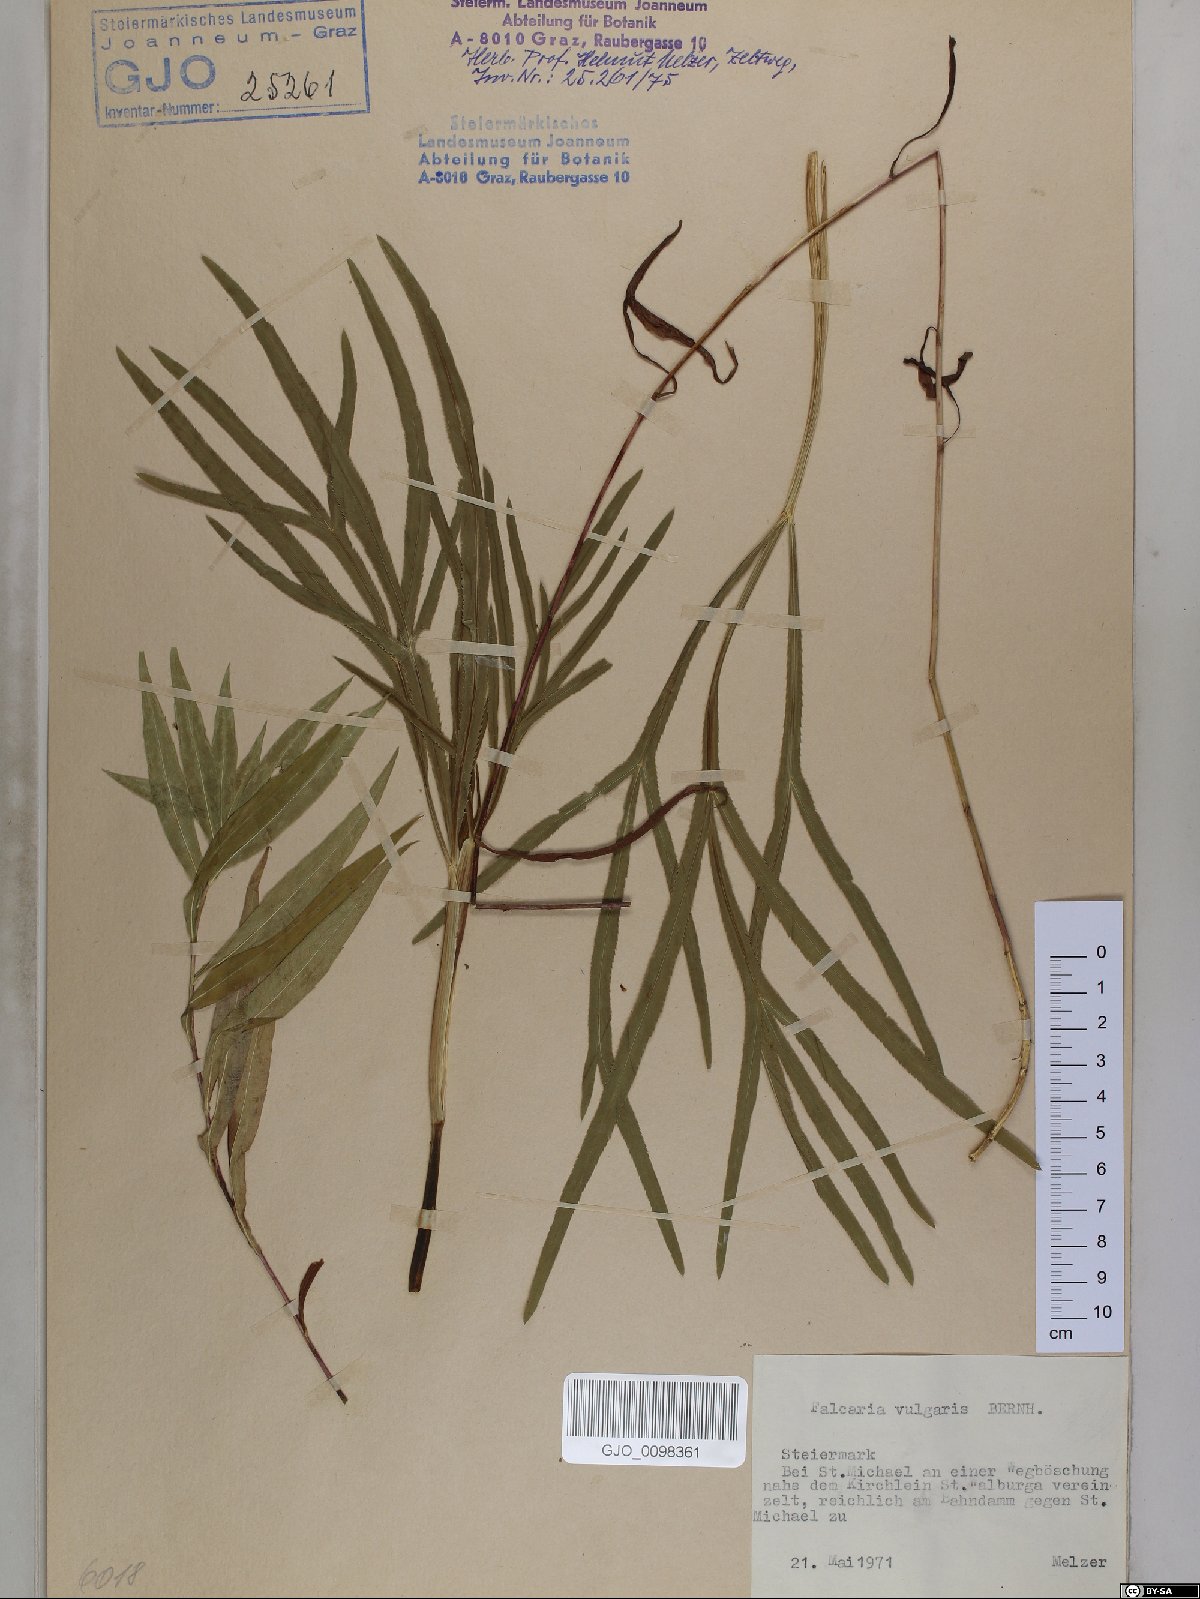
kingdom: Plantae
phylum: Tracheophyta
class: Magnoliopsida
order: Apiales
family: Apiaceae
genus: Falcaria
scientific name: Falcaria vulgaris
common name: Longleaf
